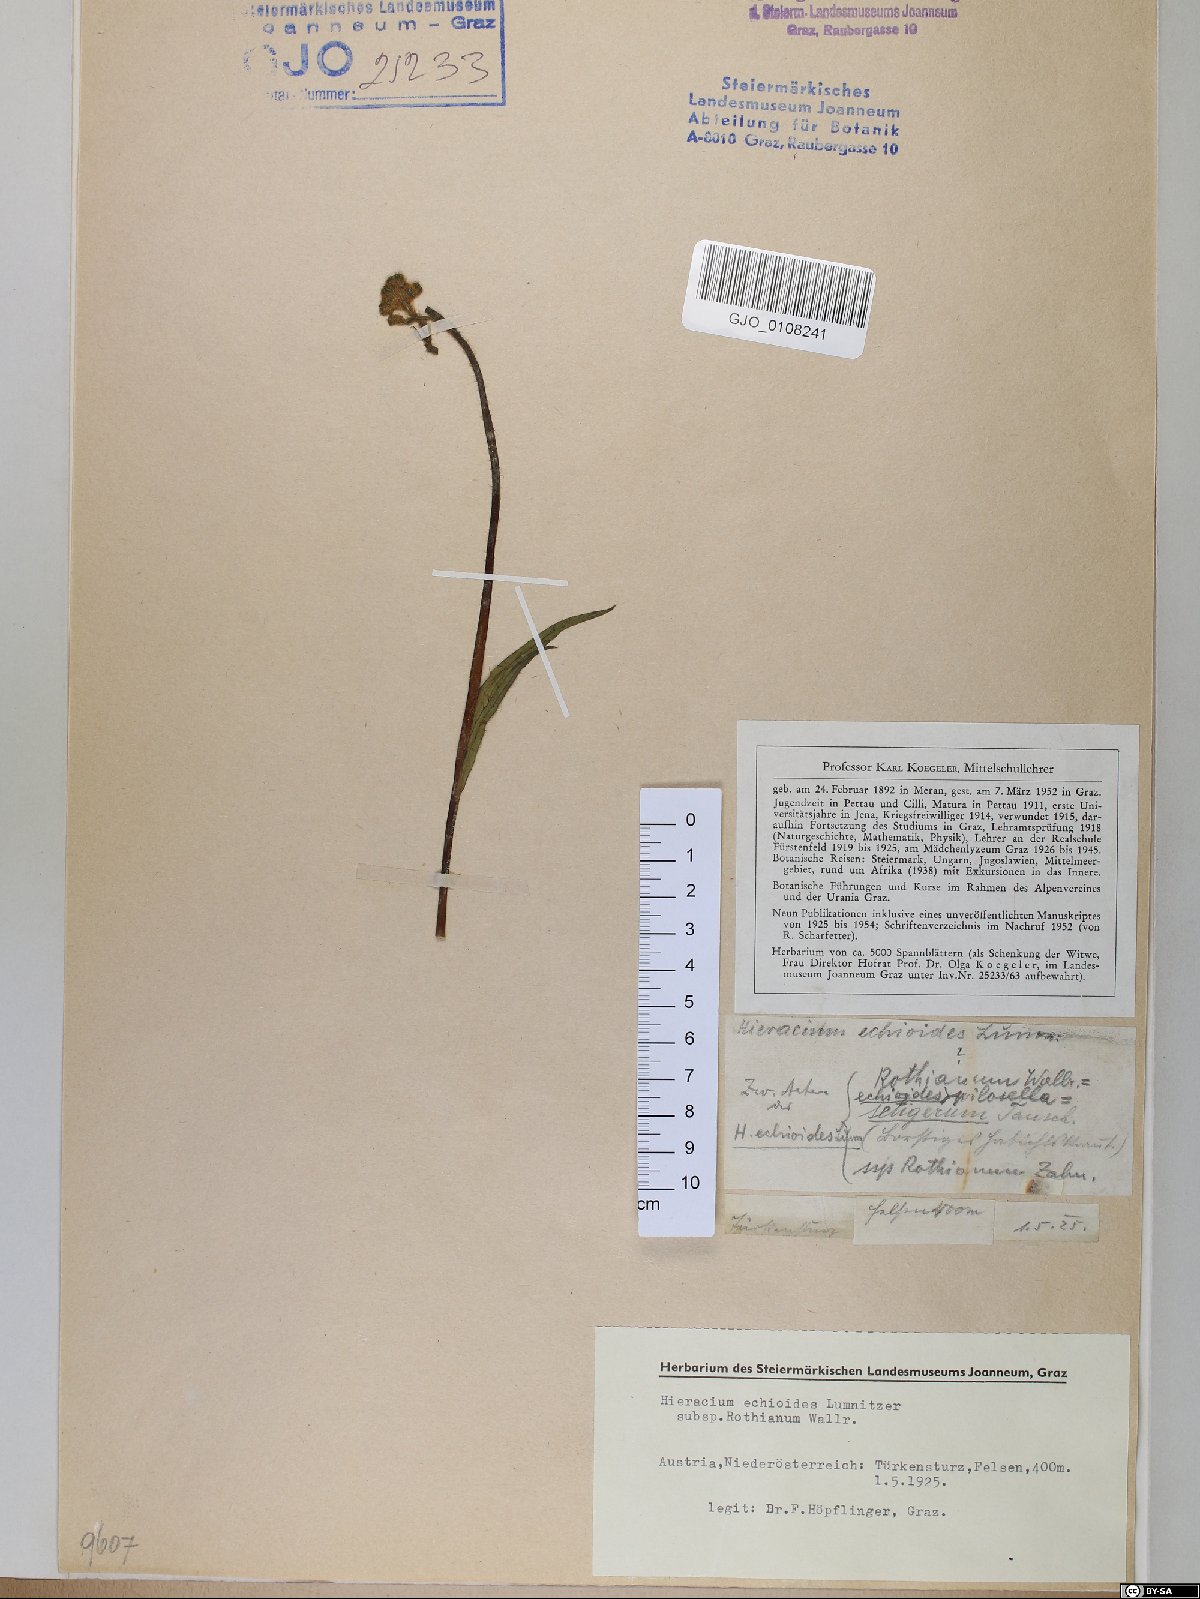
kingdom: Plantae
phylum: Tracheophyta
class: Magnoliopsida
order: Asterales
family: Asteraceae
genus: Pilosella
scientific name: Pilosella echioides
